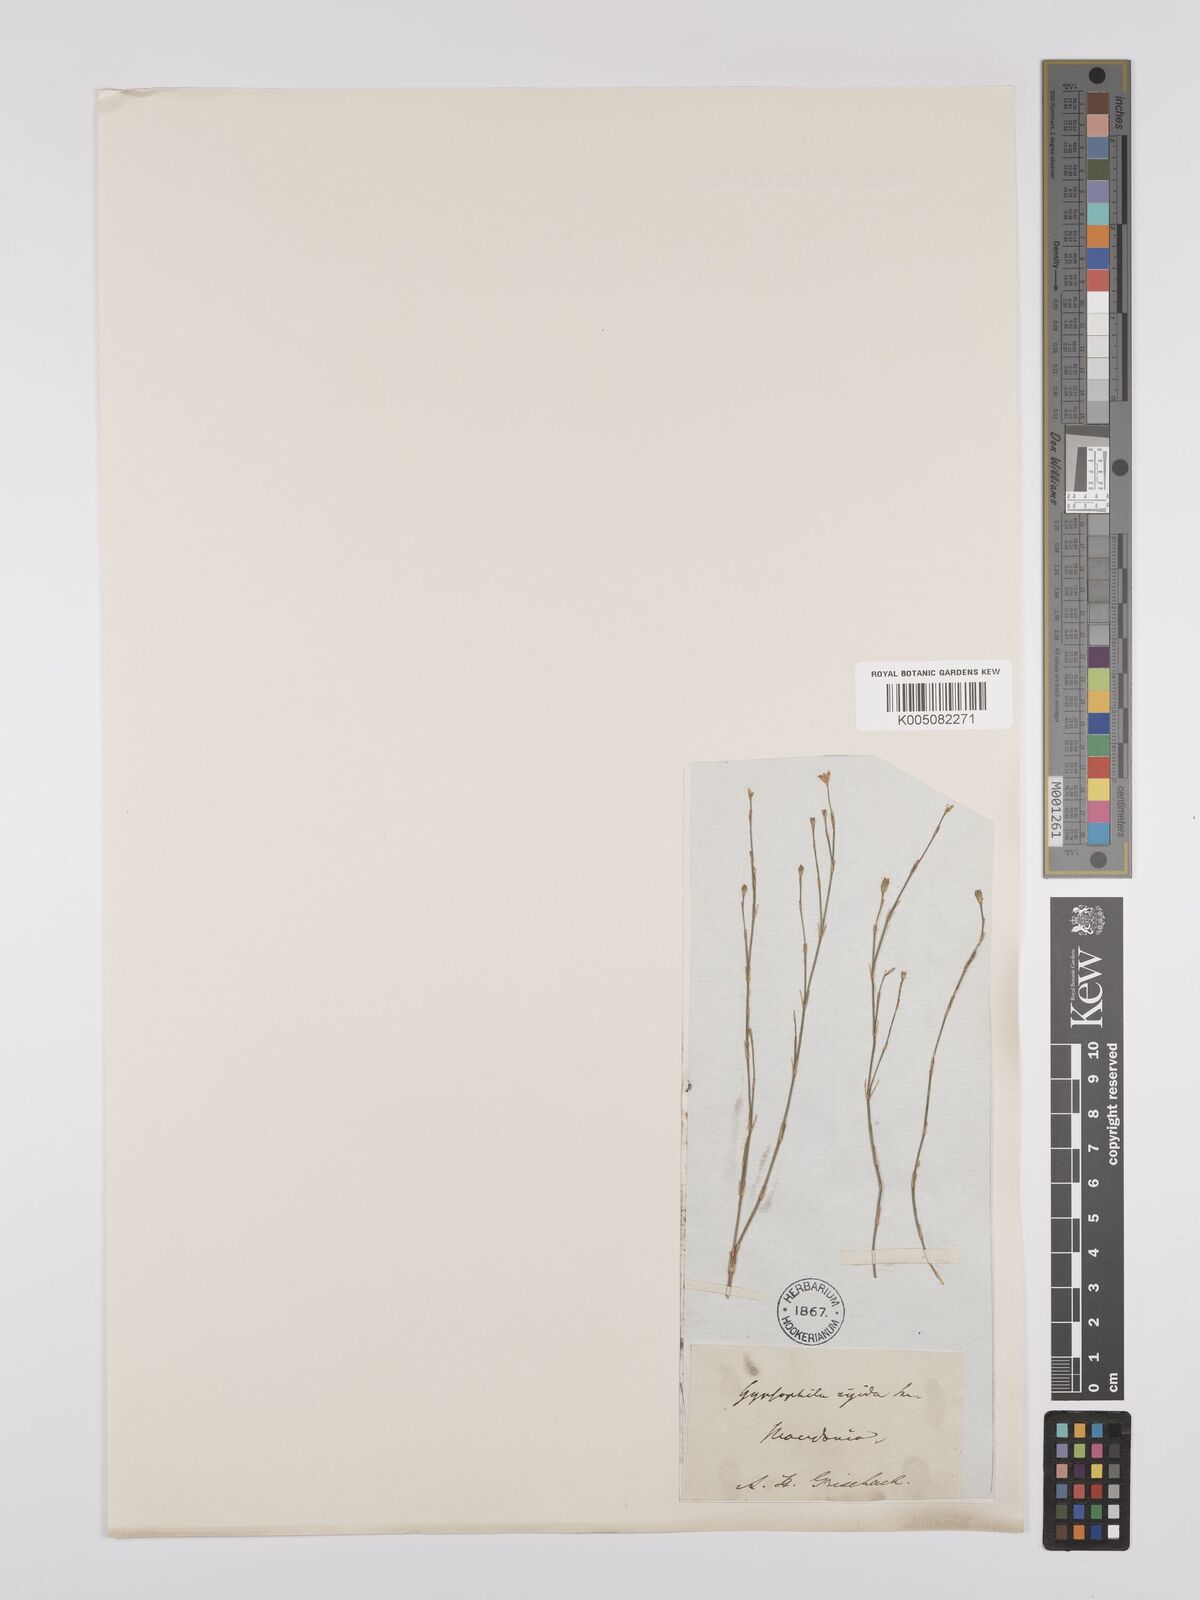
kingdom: Plantae
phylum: Tracheophyta
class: Magnoliopsida
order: Caryophyllales
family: Caryophyllaceae
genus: Petrorhagia
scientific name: Petrorhagia saxifraga
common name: Tunicflower
